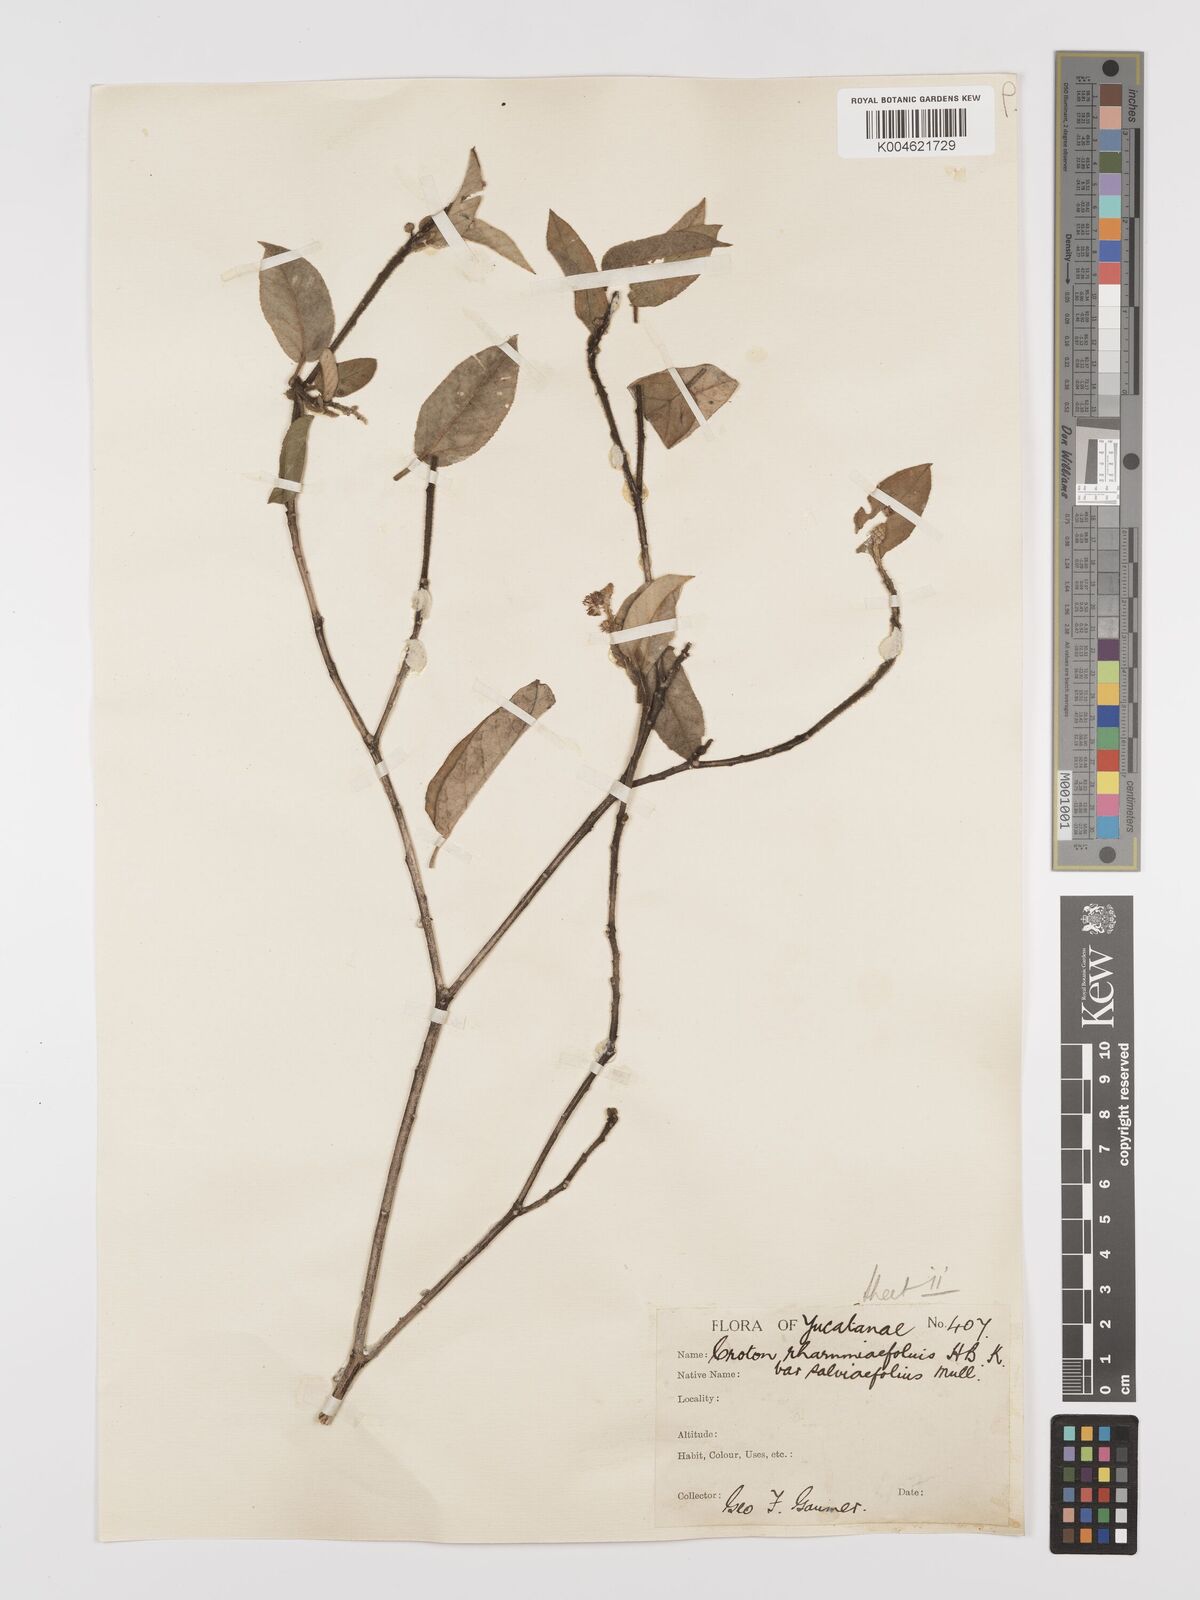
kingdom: Plantae
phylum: Tracheophyta
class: Magnoliopsida
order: Malpighiales
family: Euphorbiaceae
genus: Croton
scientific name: Croton conduplicatus
